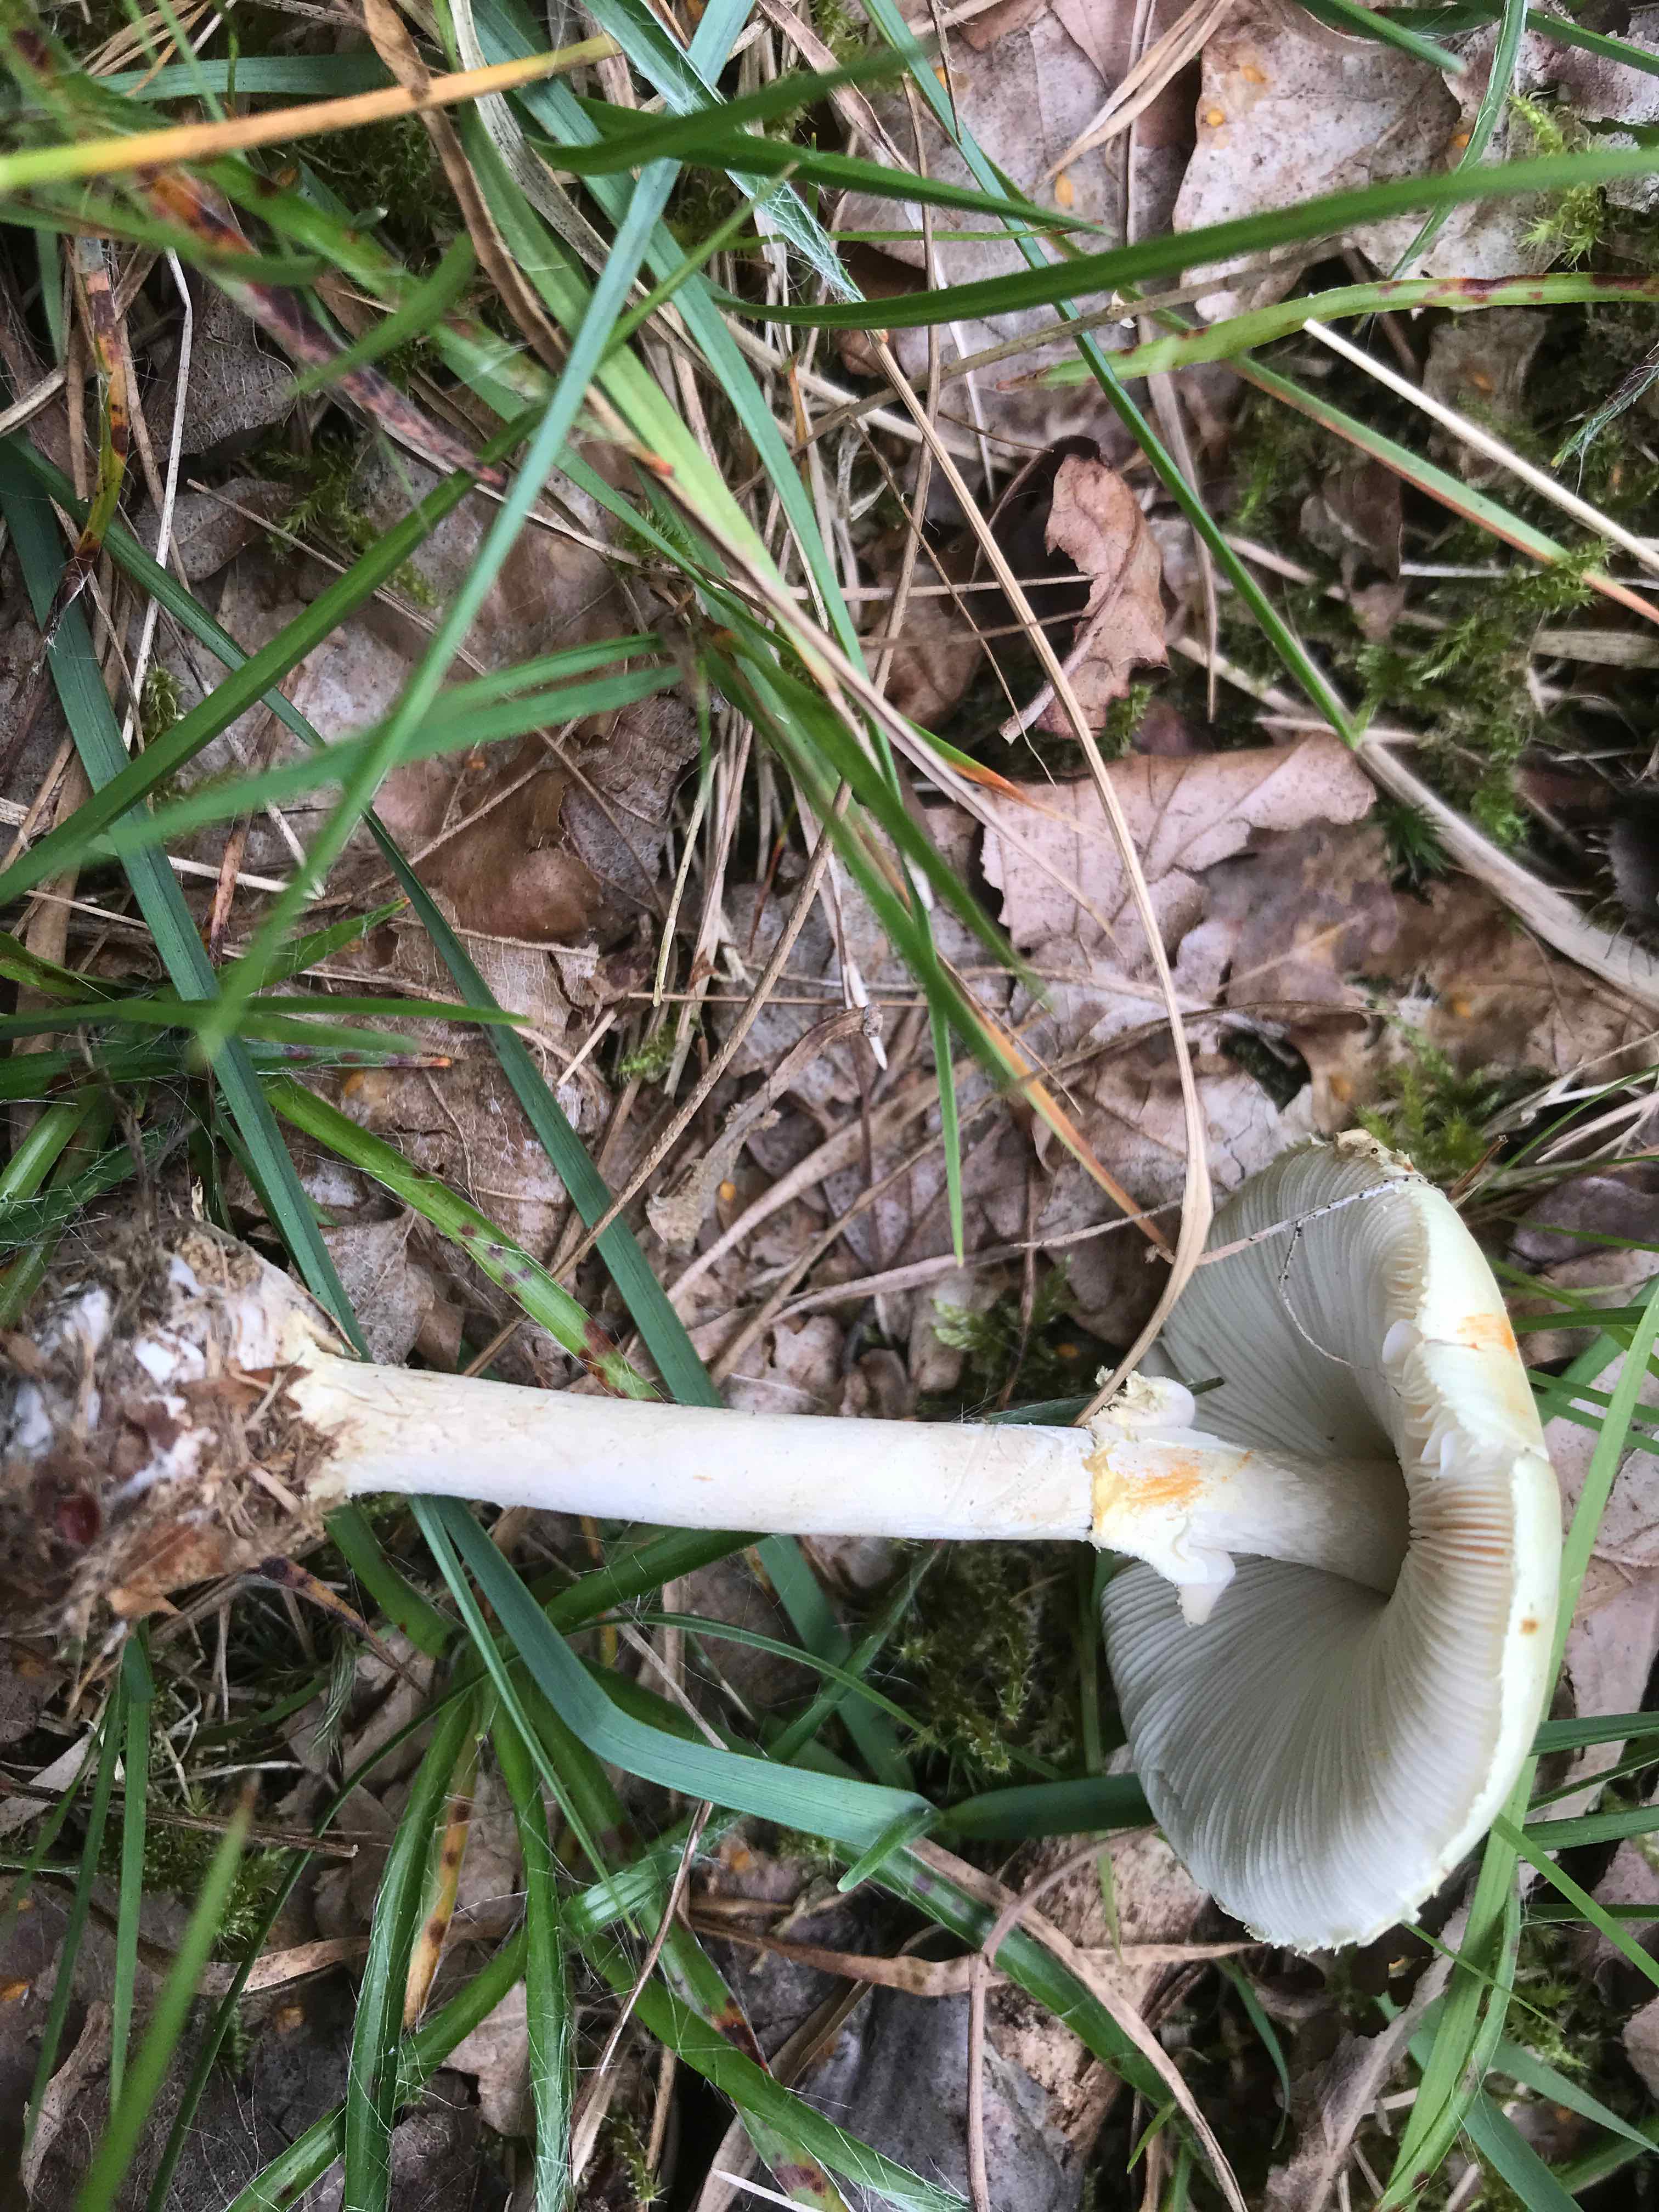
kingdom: Fungi
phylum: Basidiomycota
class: Agaricomycetes
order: Agaricales
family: Amanitaceae
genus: Amanita
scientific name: Amanita citrina
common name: kugleknoldet fluesvamp
